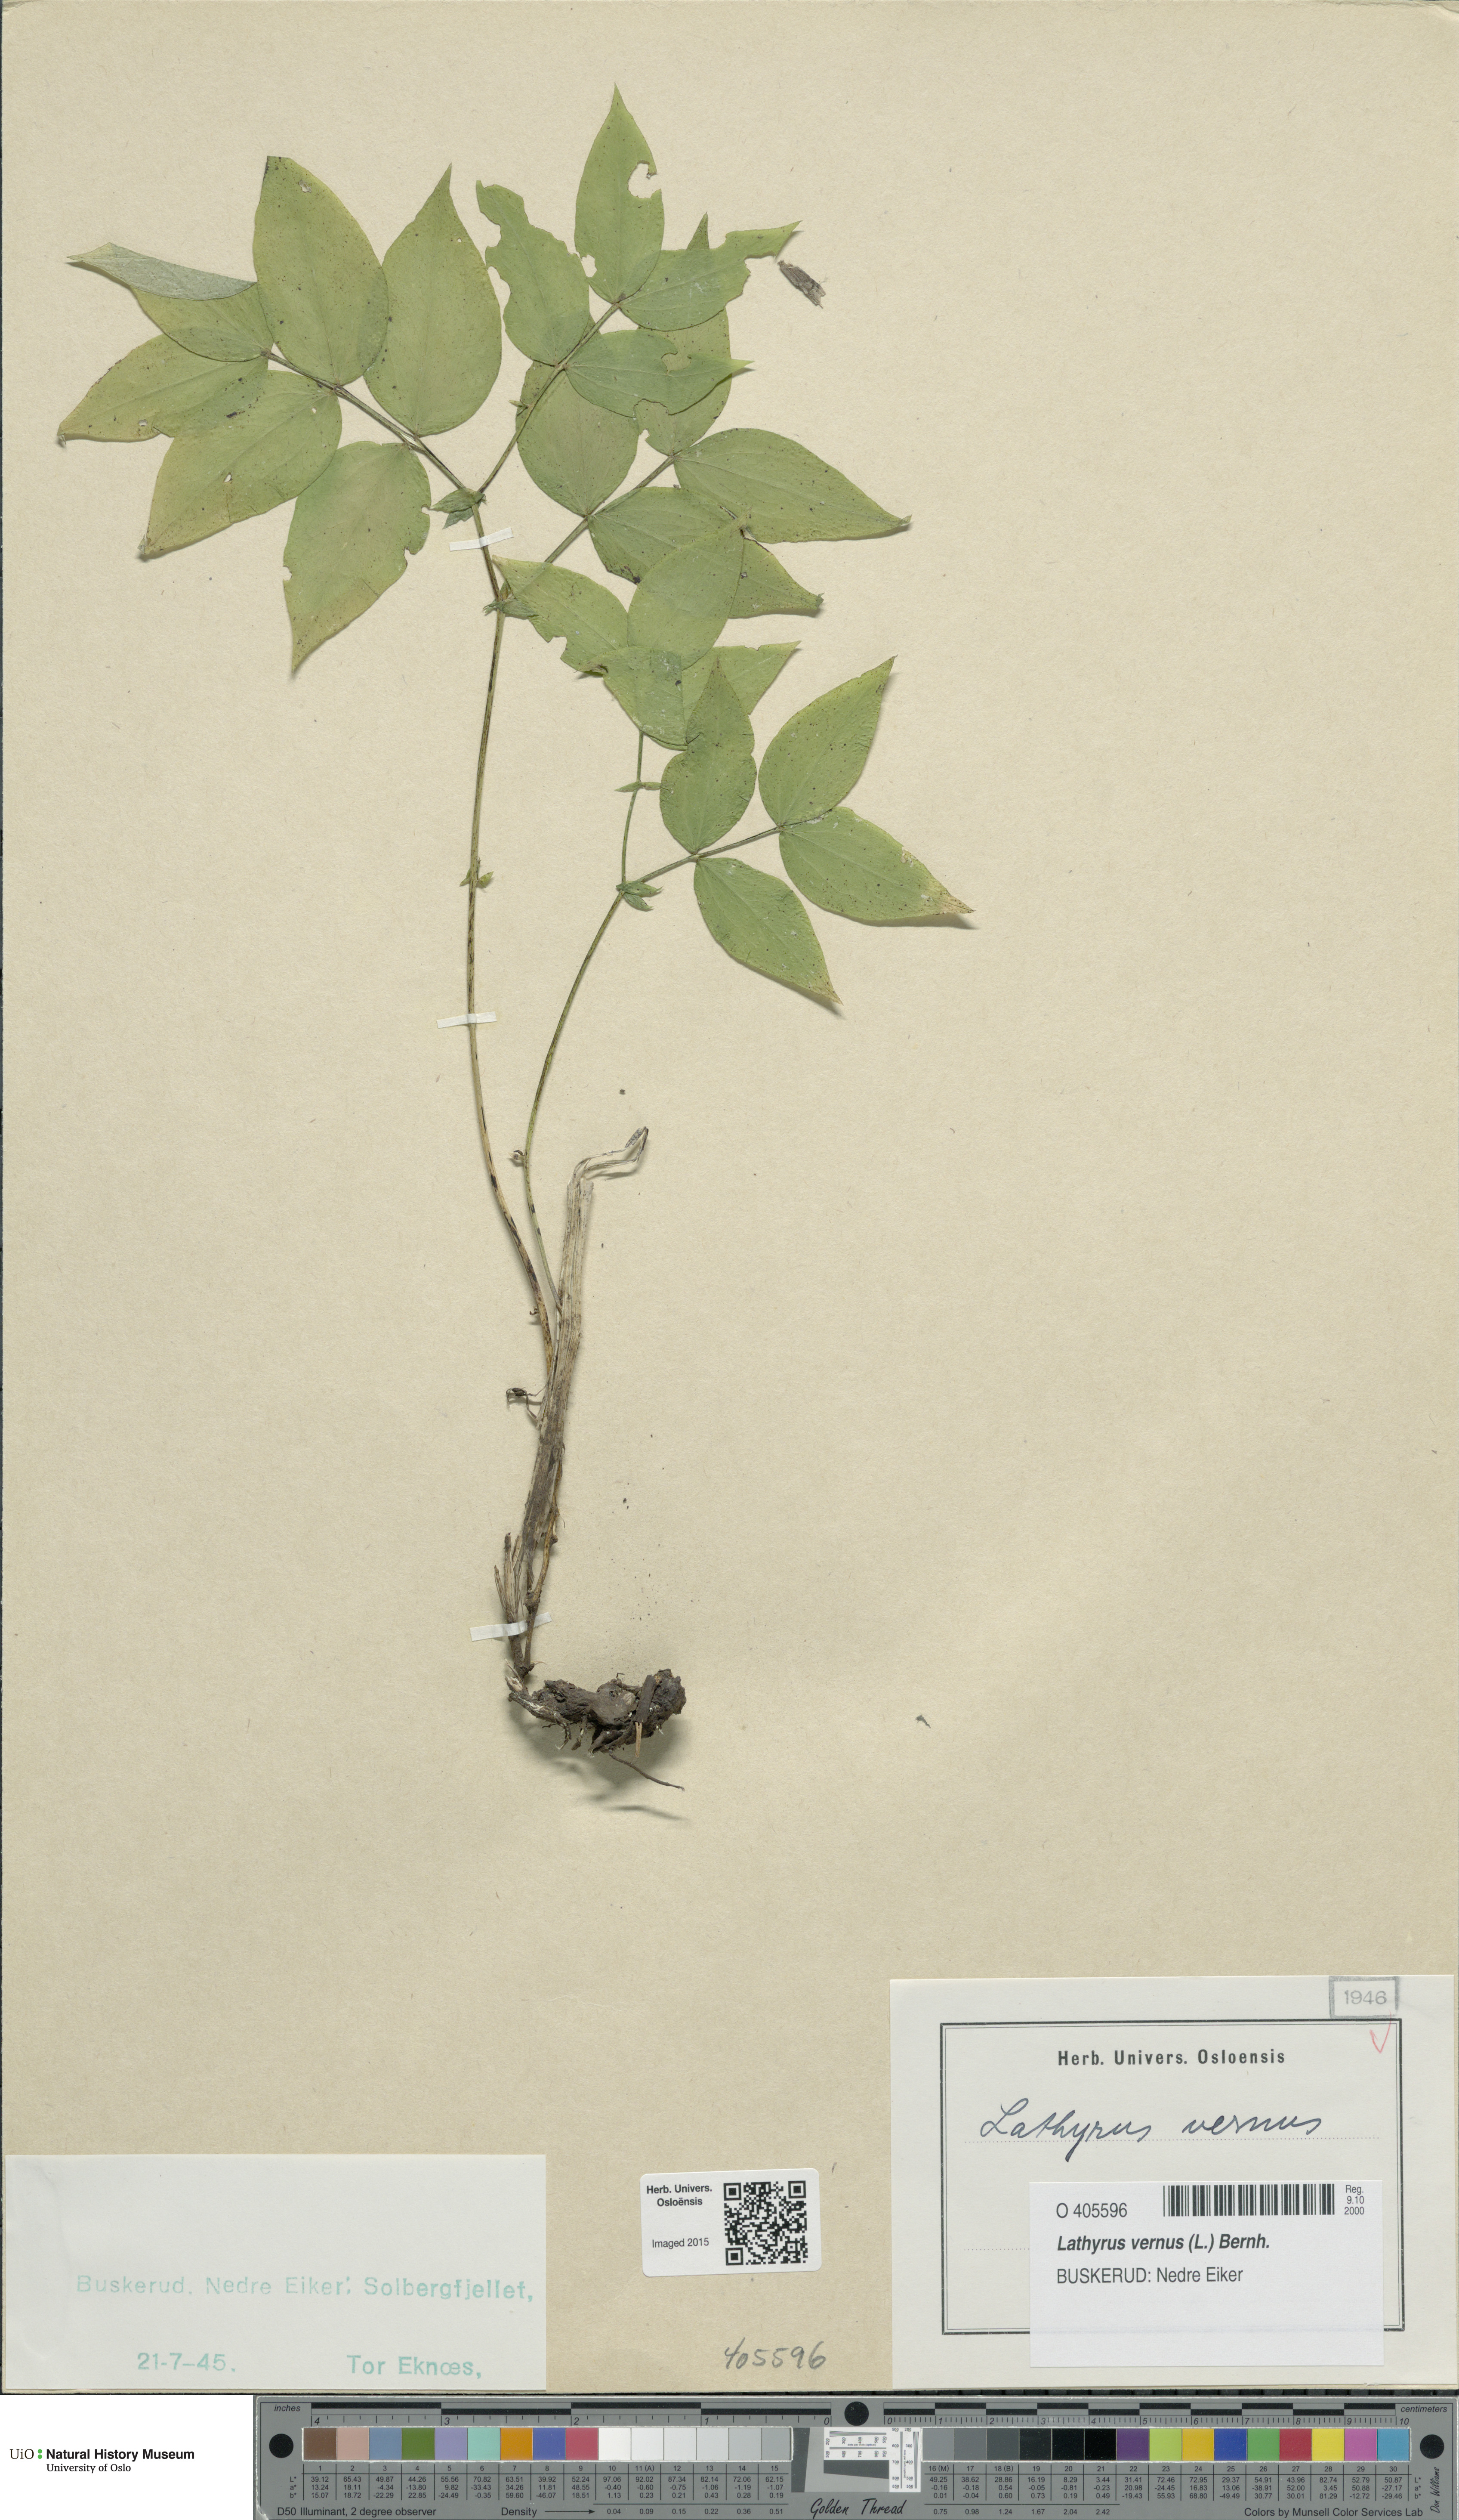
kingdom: Plantae
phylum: Tracheophyta
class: Magnoliopsida
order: Fabales
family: Fabaceae
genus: Lathyrus
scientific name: Lathyrus vernus
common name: Spring pea
